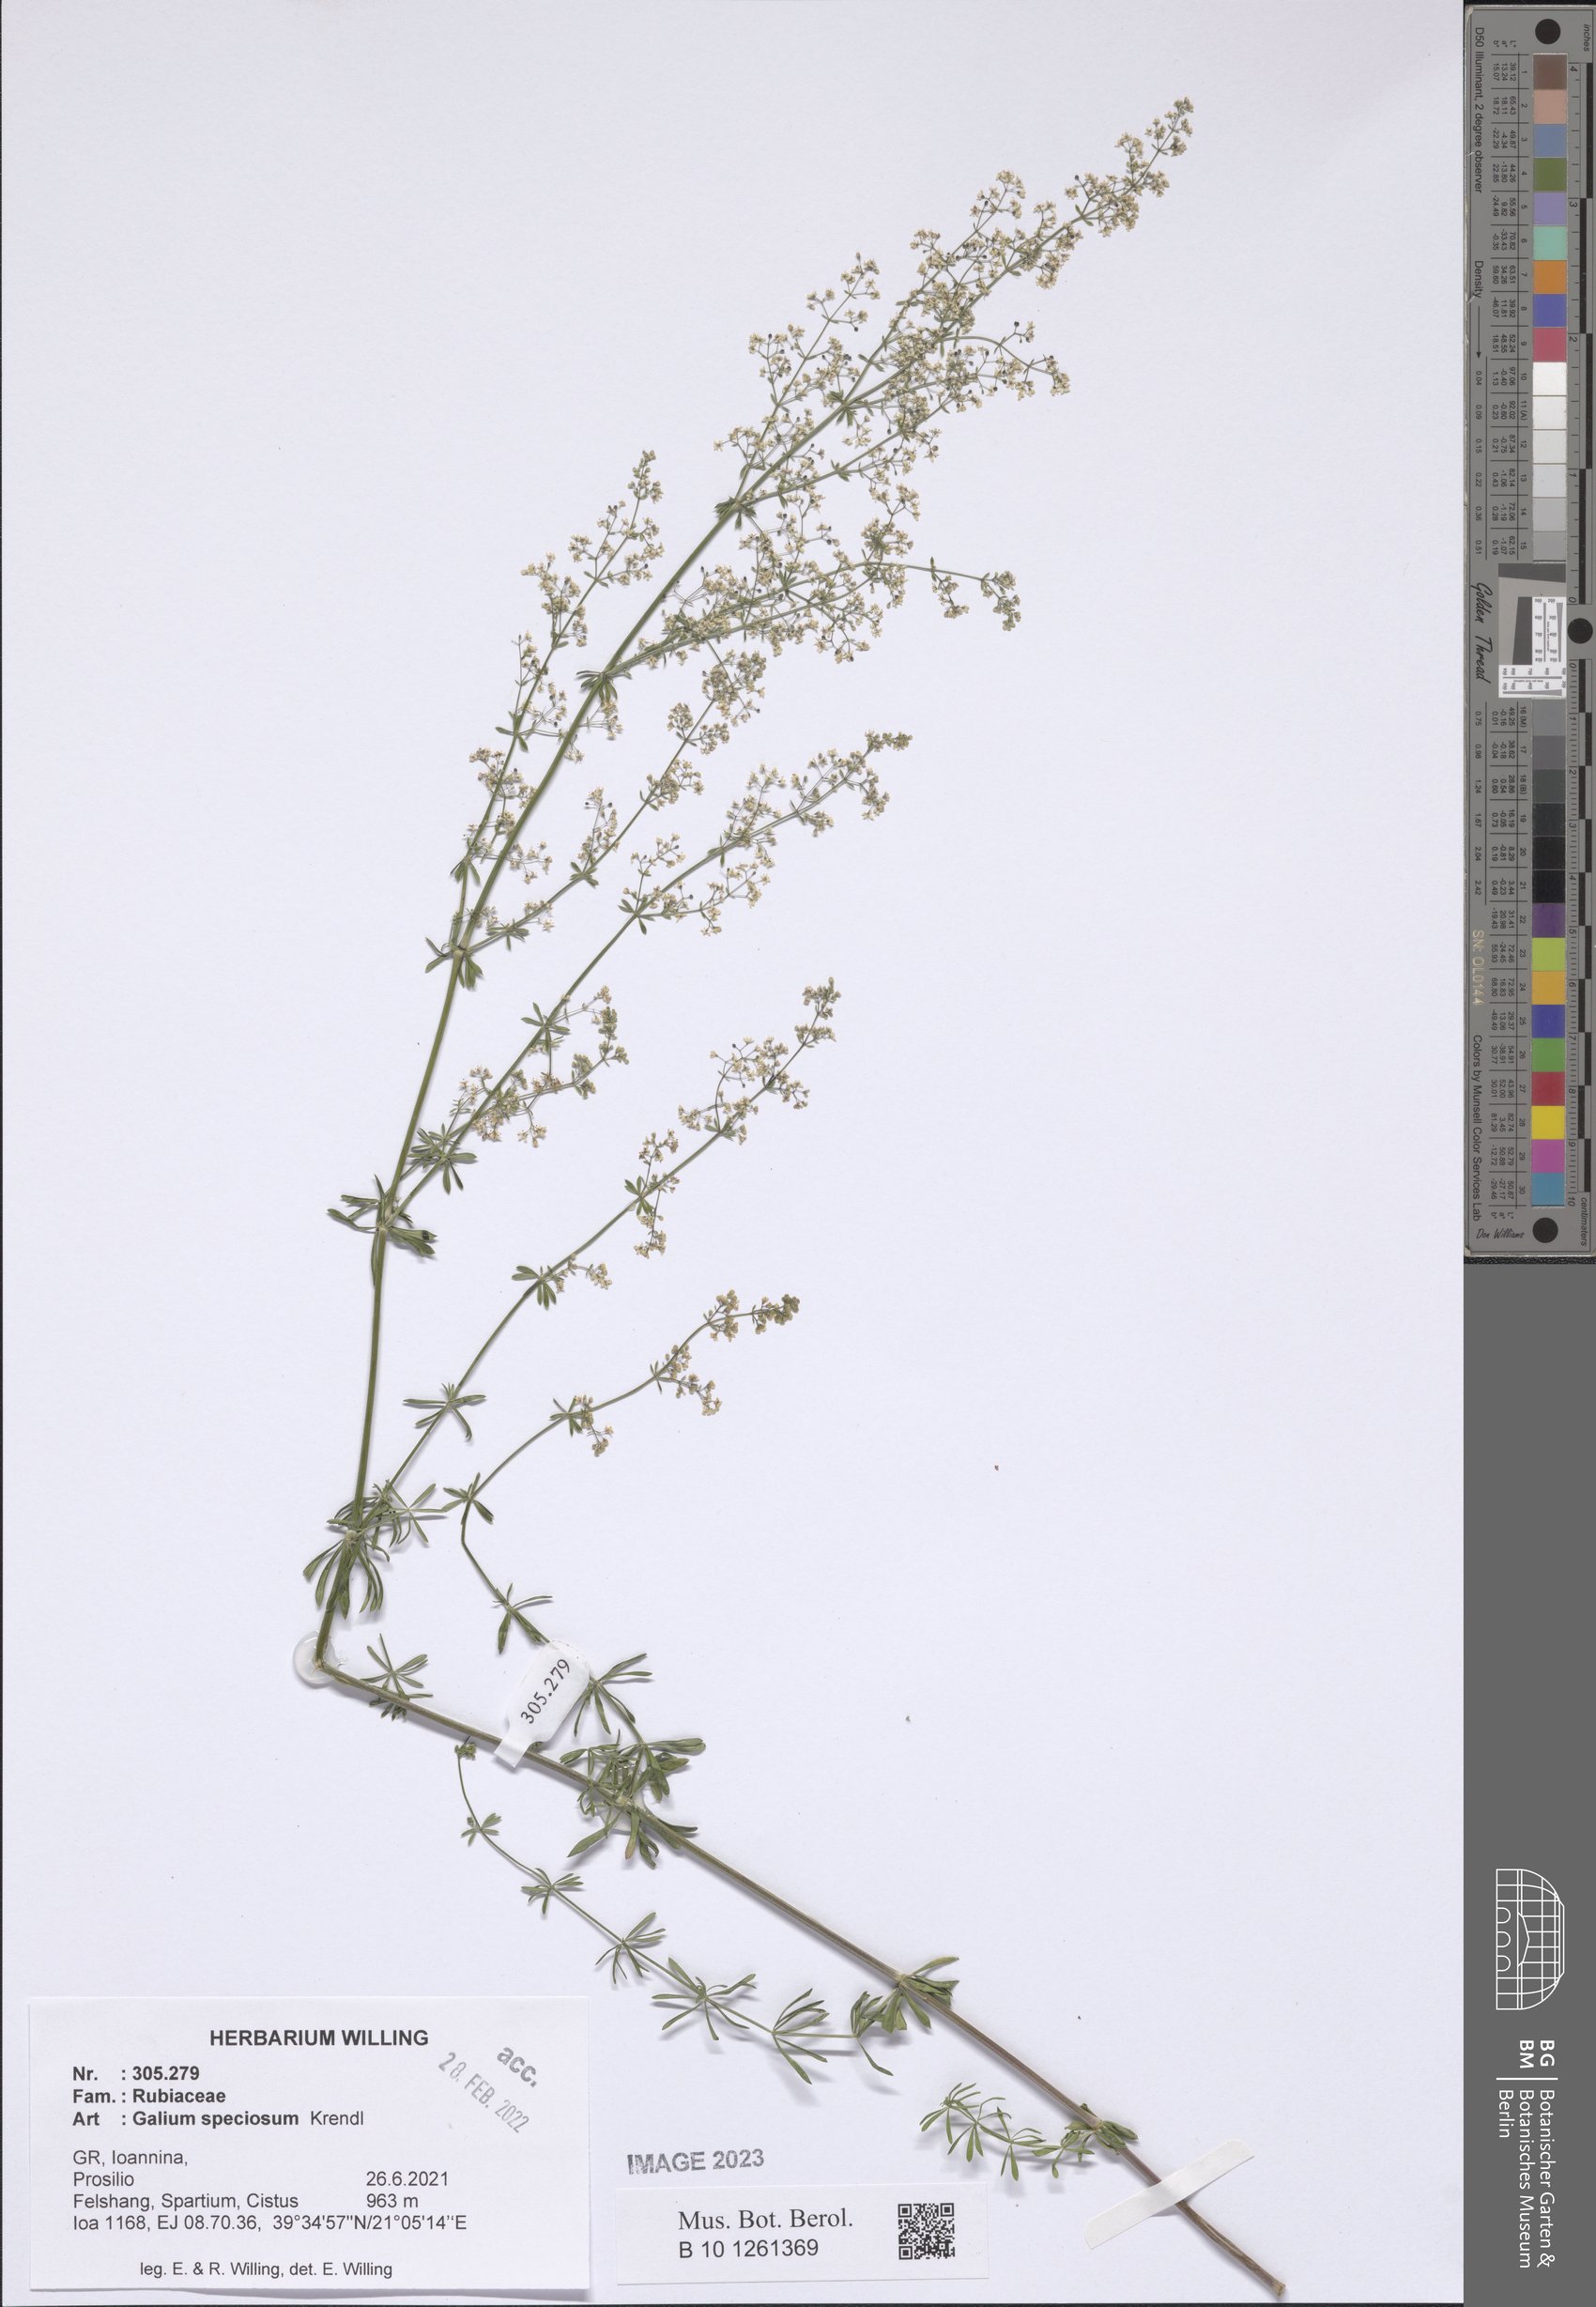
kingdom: Plantae
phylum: Tracheophyta
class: Magnoliopsida
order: Gentianales
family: Rubiaceae
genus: Galium
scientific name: Galium speciosum
